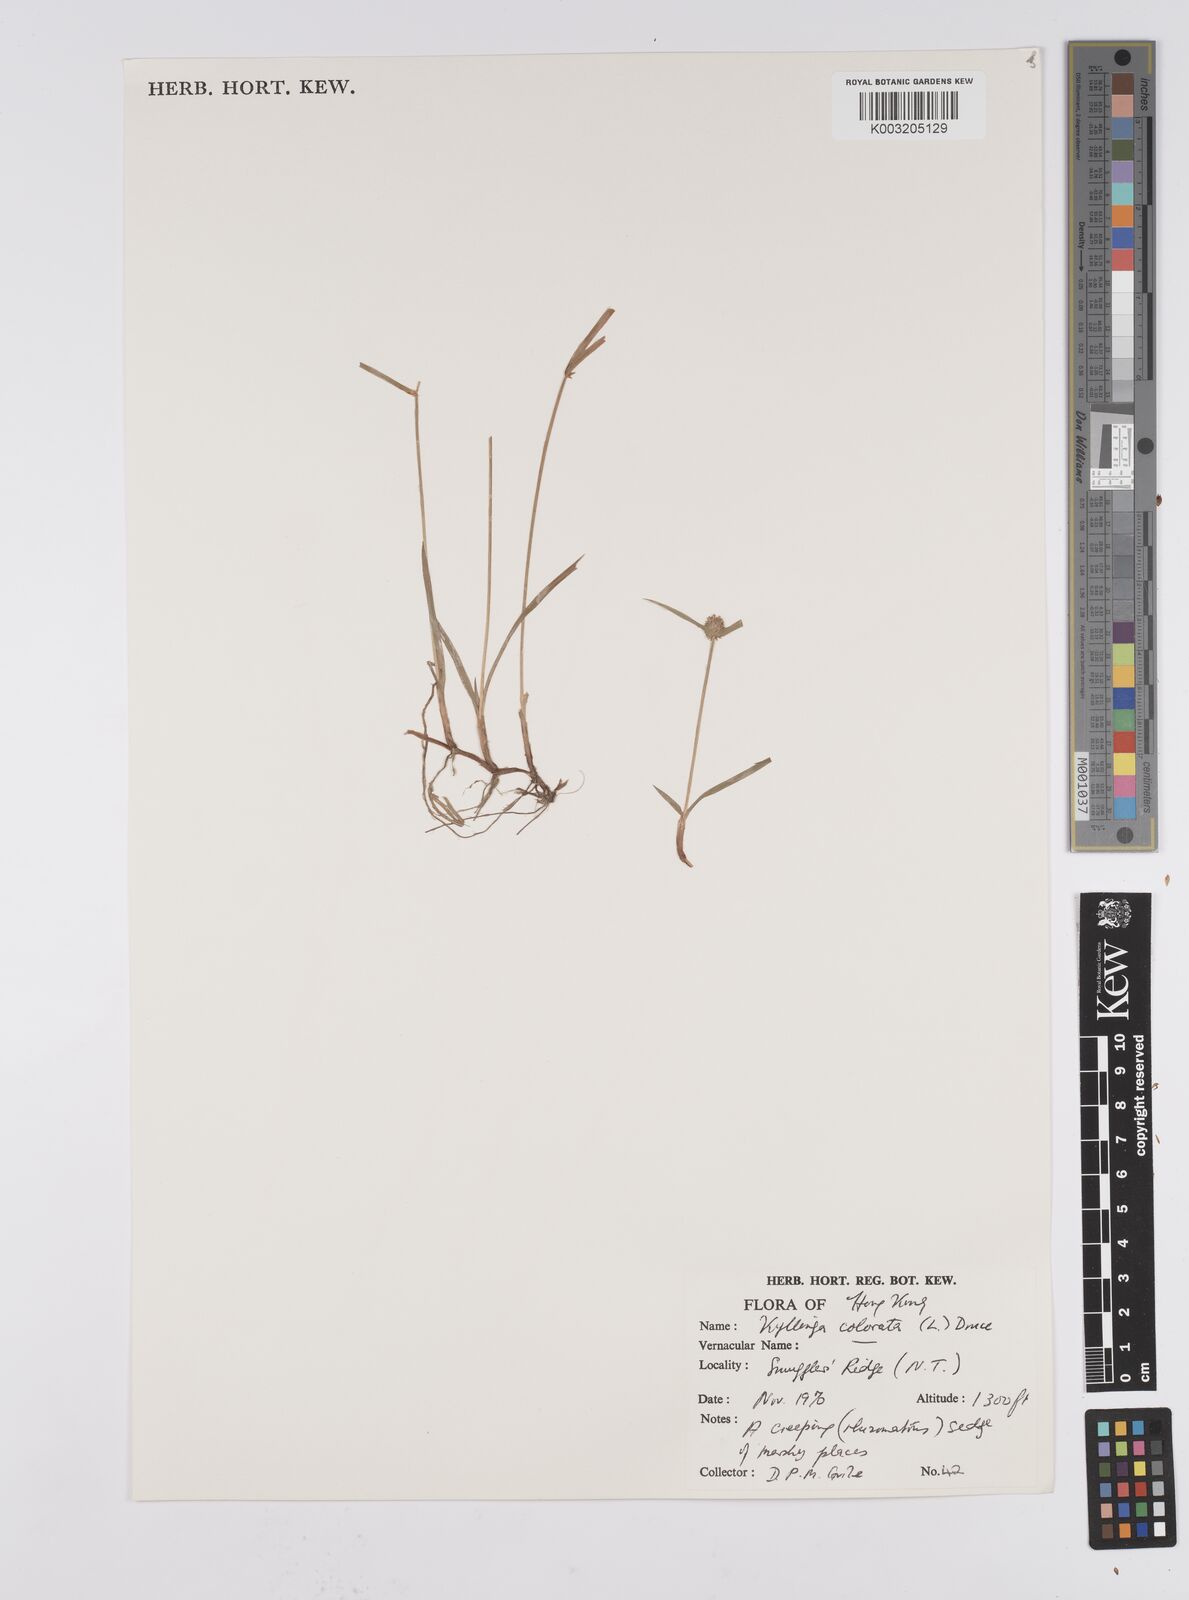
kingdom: Plantae
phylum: Tracheophyta
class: Liliopsida
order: Poales
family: Cyperaceae
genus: Cyperus
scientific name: Cyperus brevifolius
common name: Globe kyllinga
